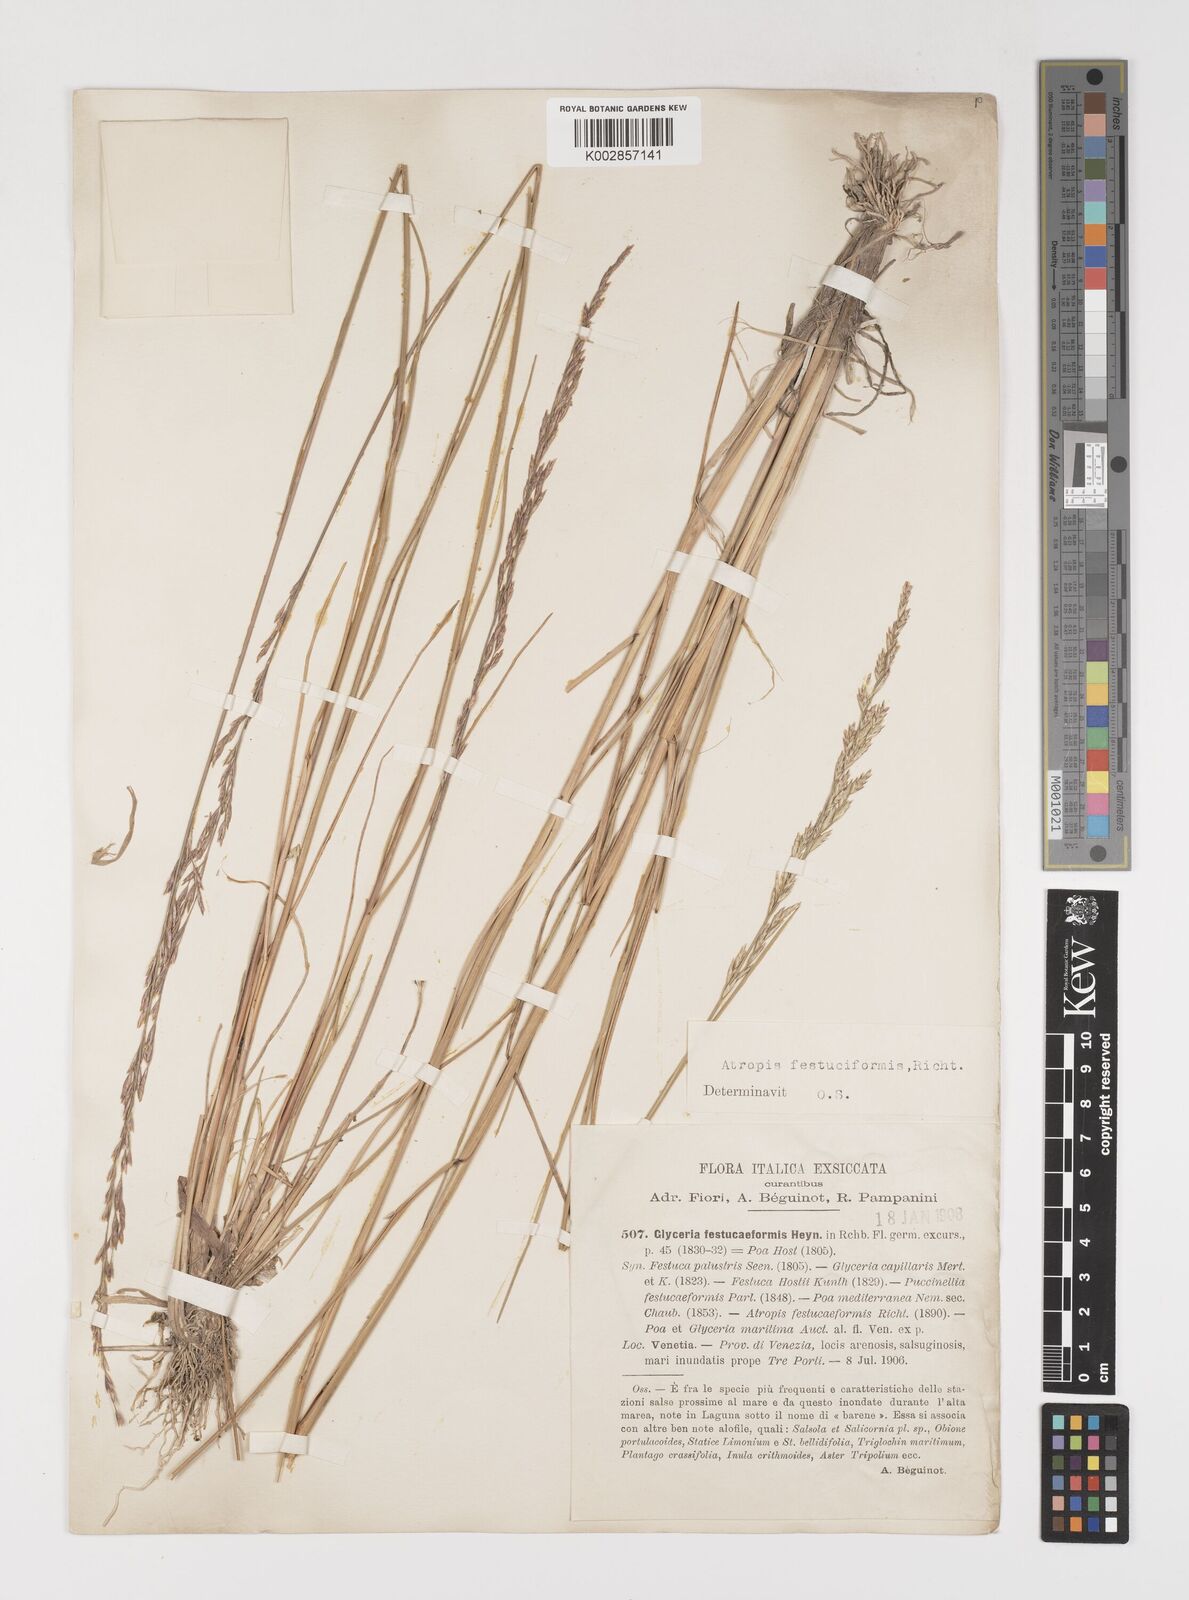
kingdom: Plantae
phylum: Tracheophyta
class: Liliopsida
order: Poales
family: Poaceae
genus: Puccinellia
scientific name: Puccinellia festuciformis
